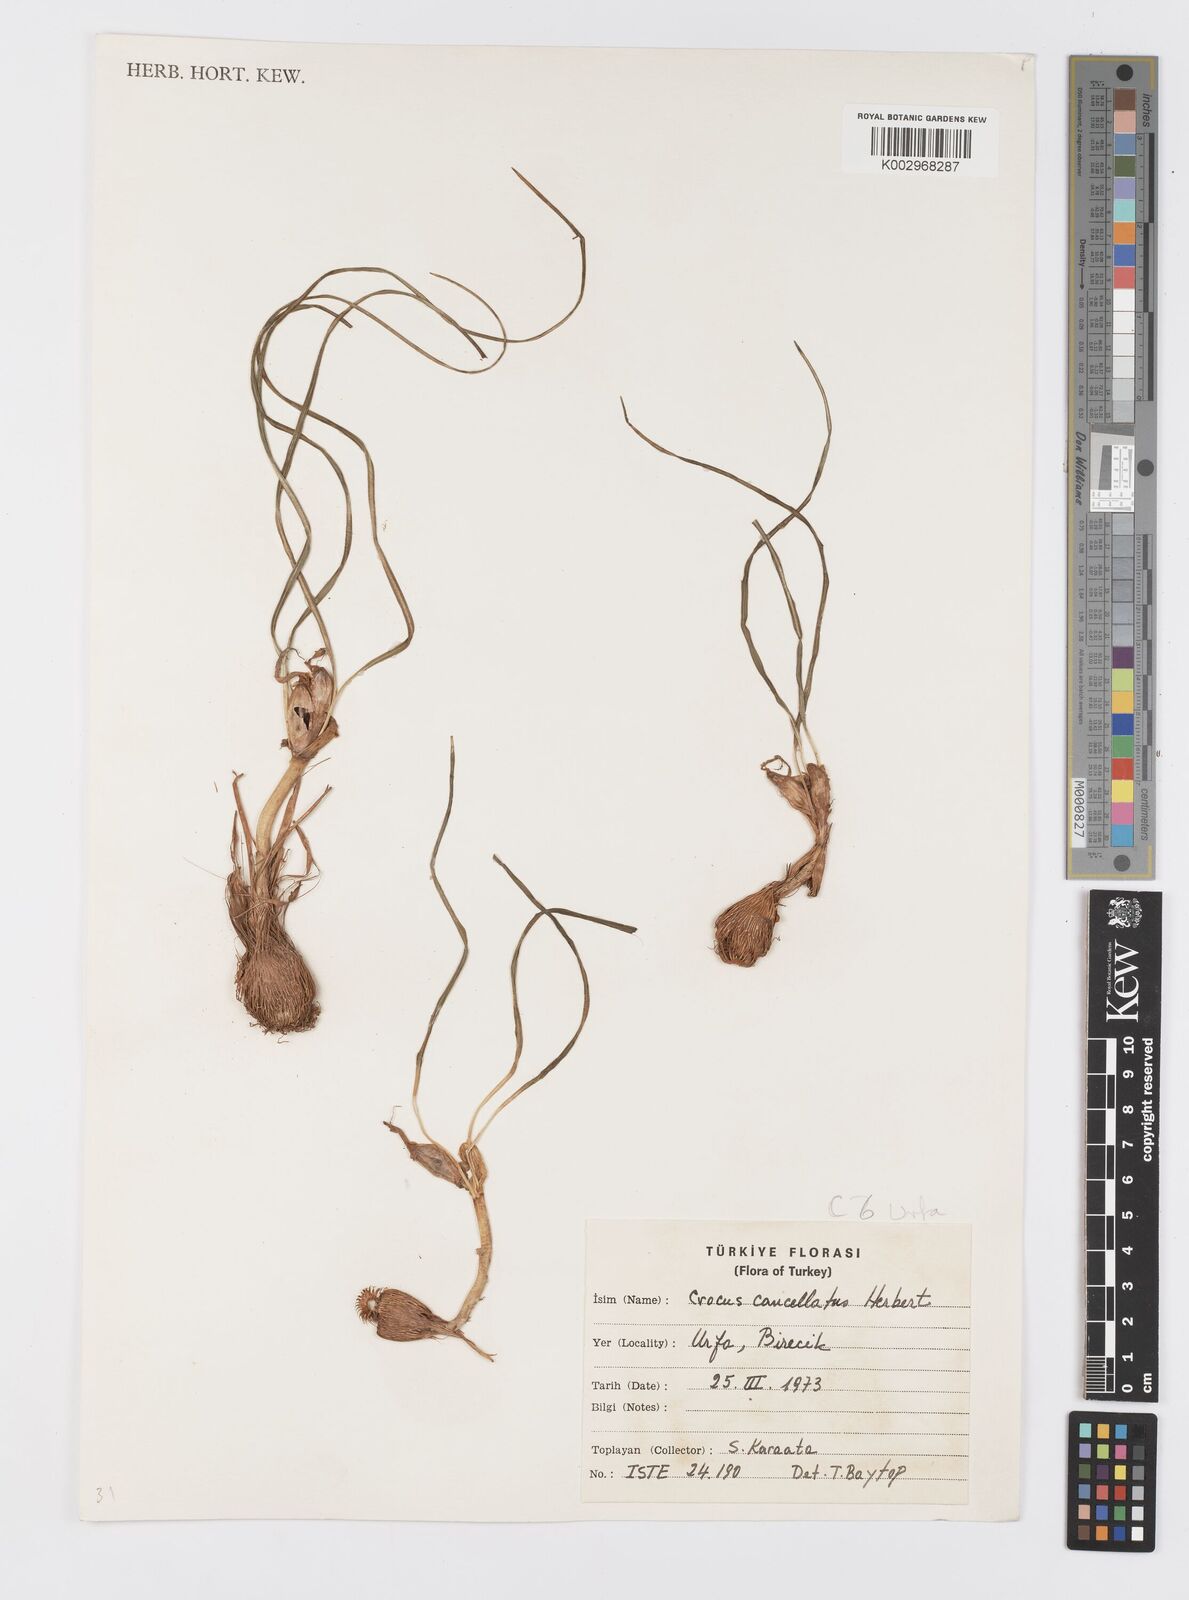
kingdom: Plantae
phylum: Tracheophyta
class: Liliopsida
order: Asparagales
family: Iridaceae
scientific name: Iridaceae
